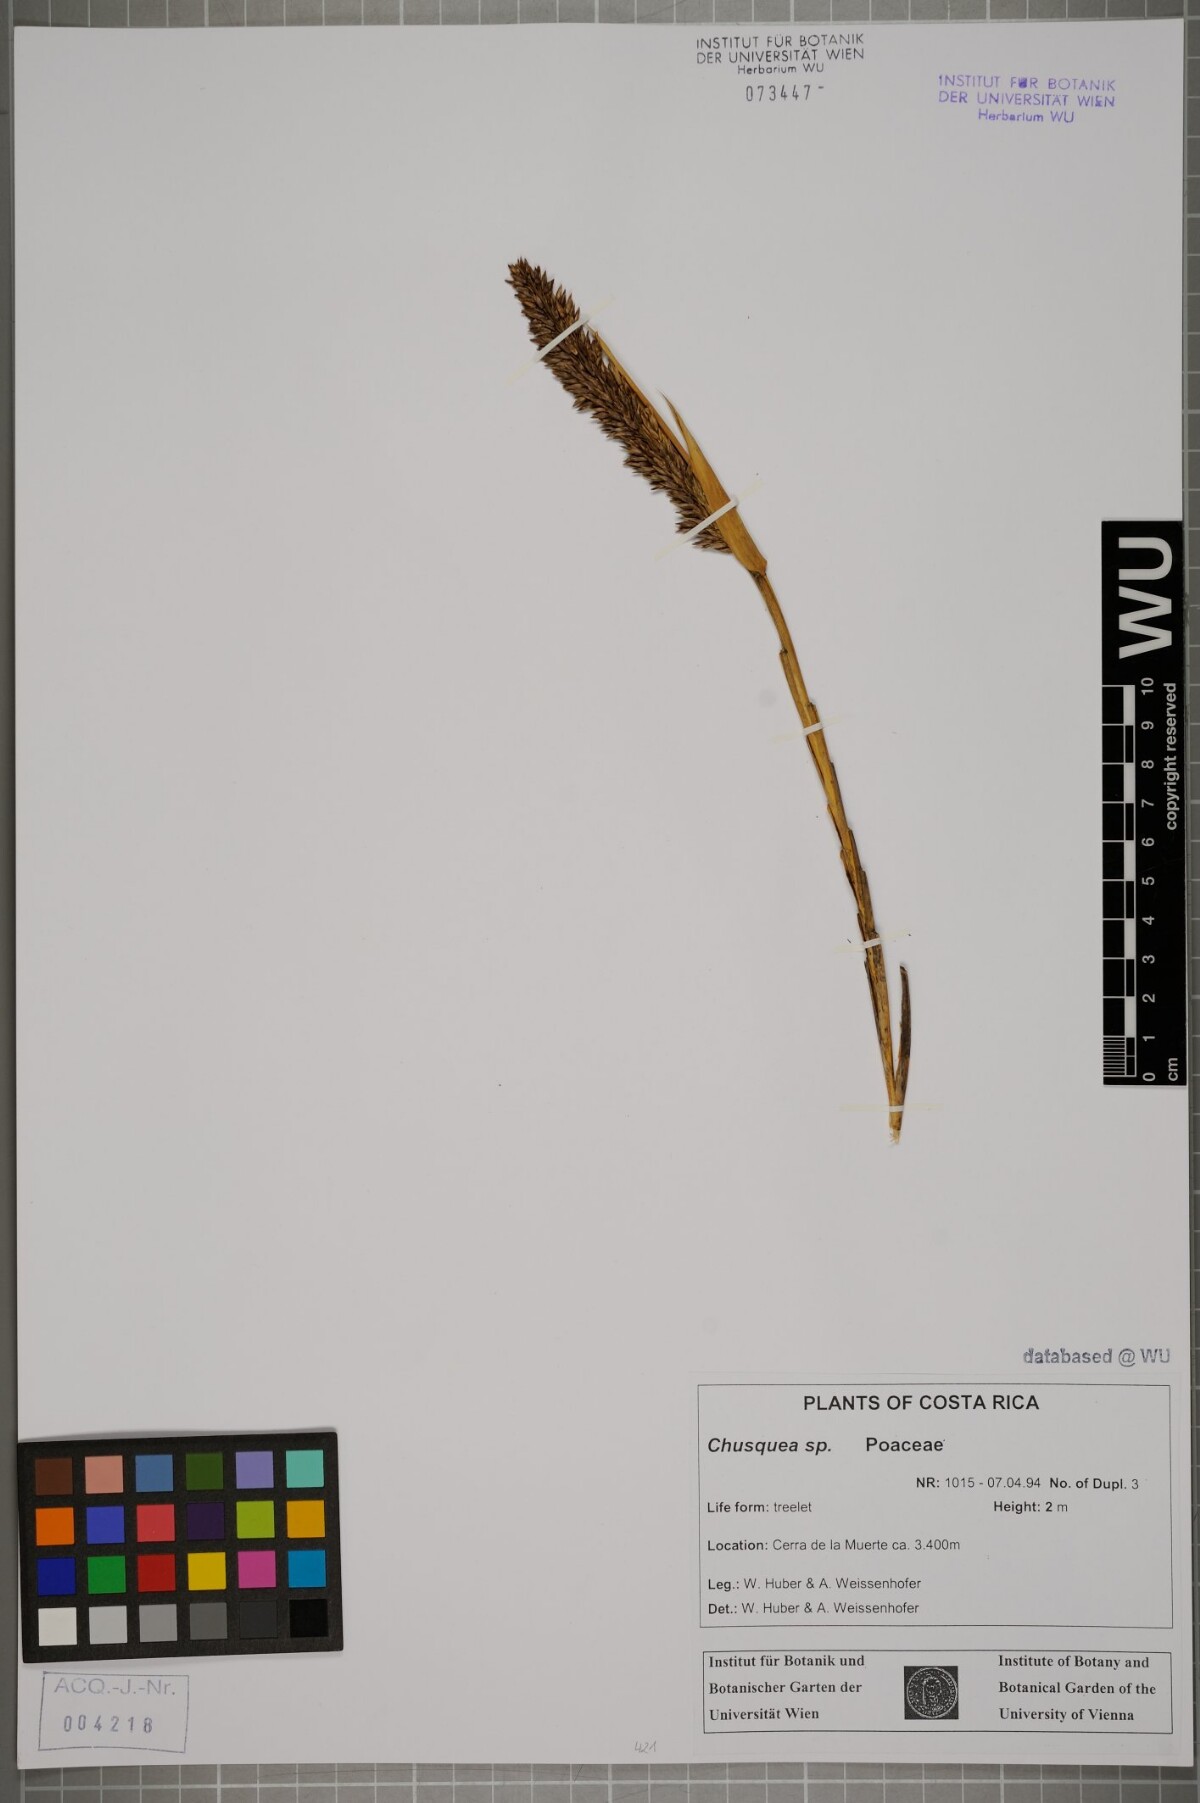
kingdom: Plantae
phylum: Tracheophyta
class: Liliopsida
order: Poales
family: Poaceae
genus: Chusquea
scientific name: Chusquea
